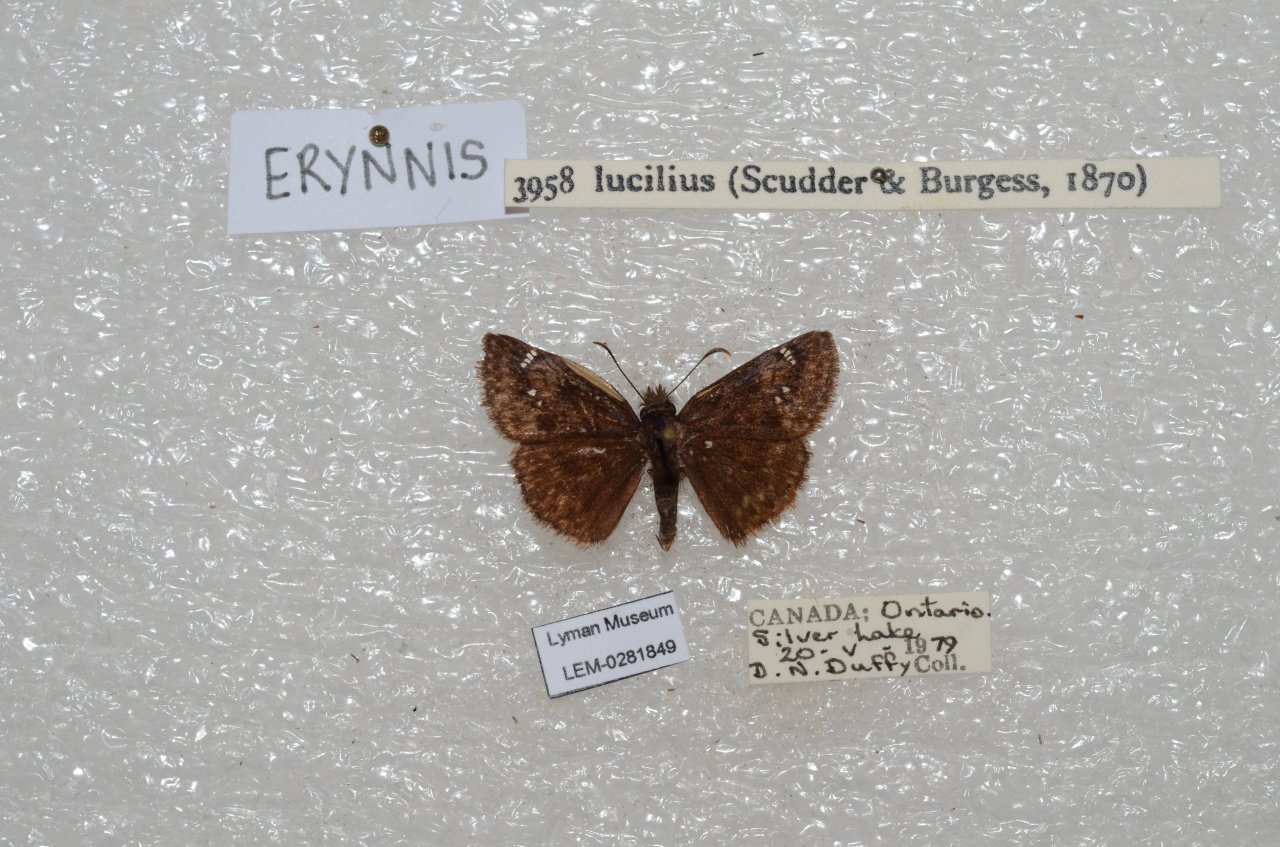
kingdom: Animalia
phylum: Arthropoda
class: Insecta
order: Lepidoptera
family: Hesperiidae
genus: Gesta
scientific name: Gesta
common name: Columbine Duskywing
